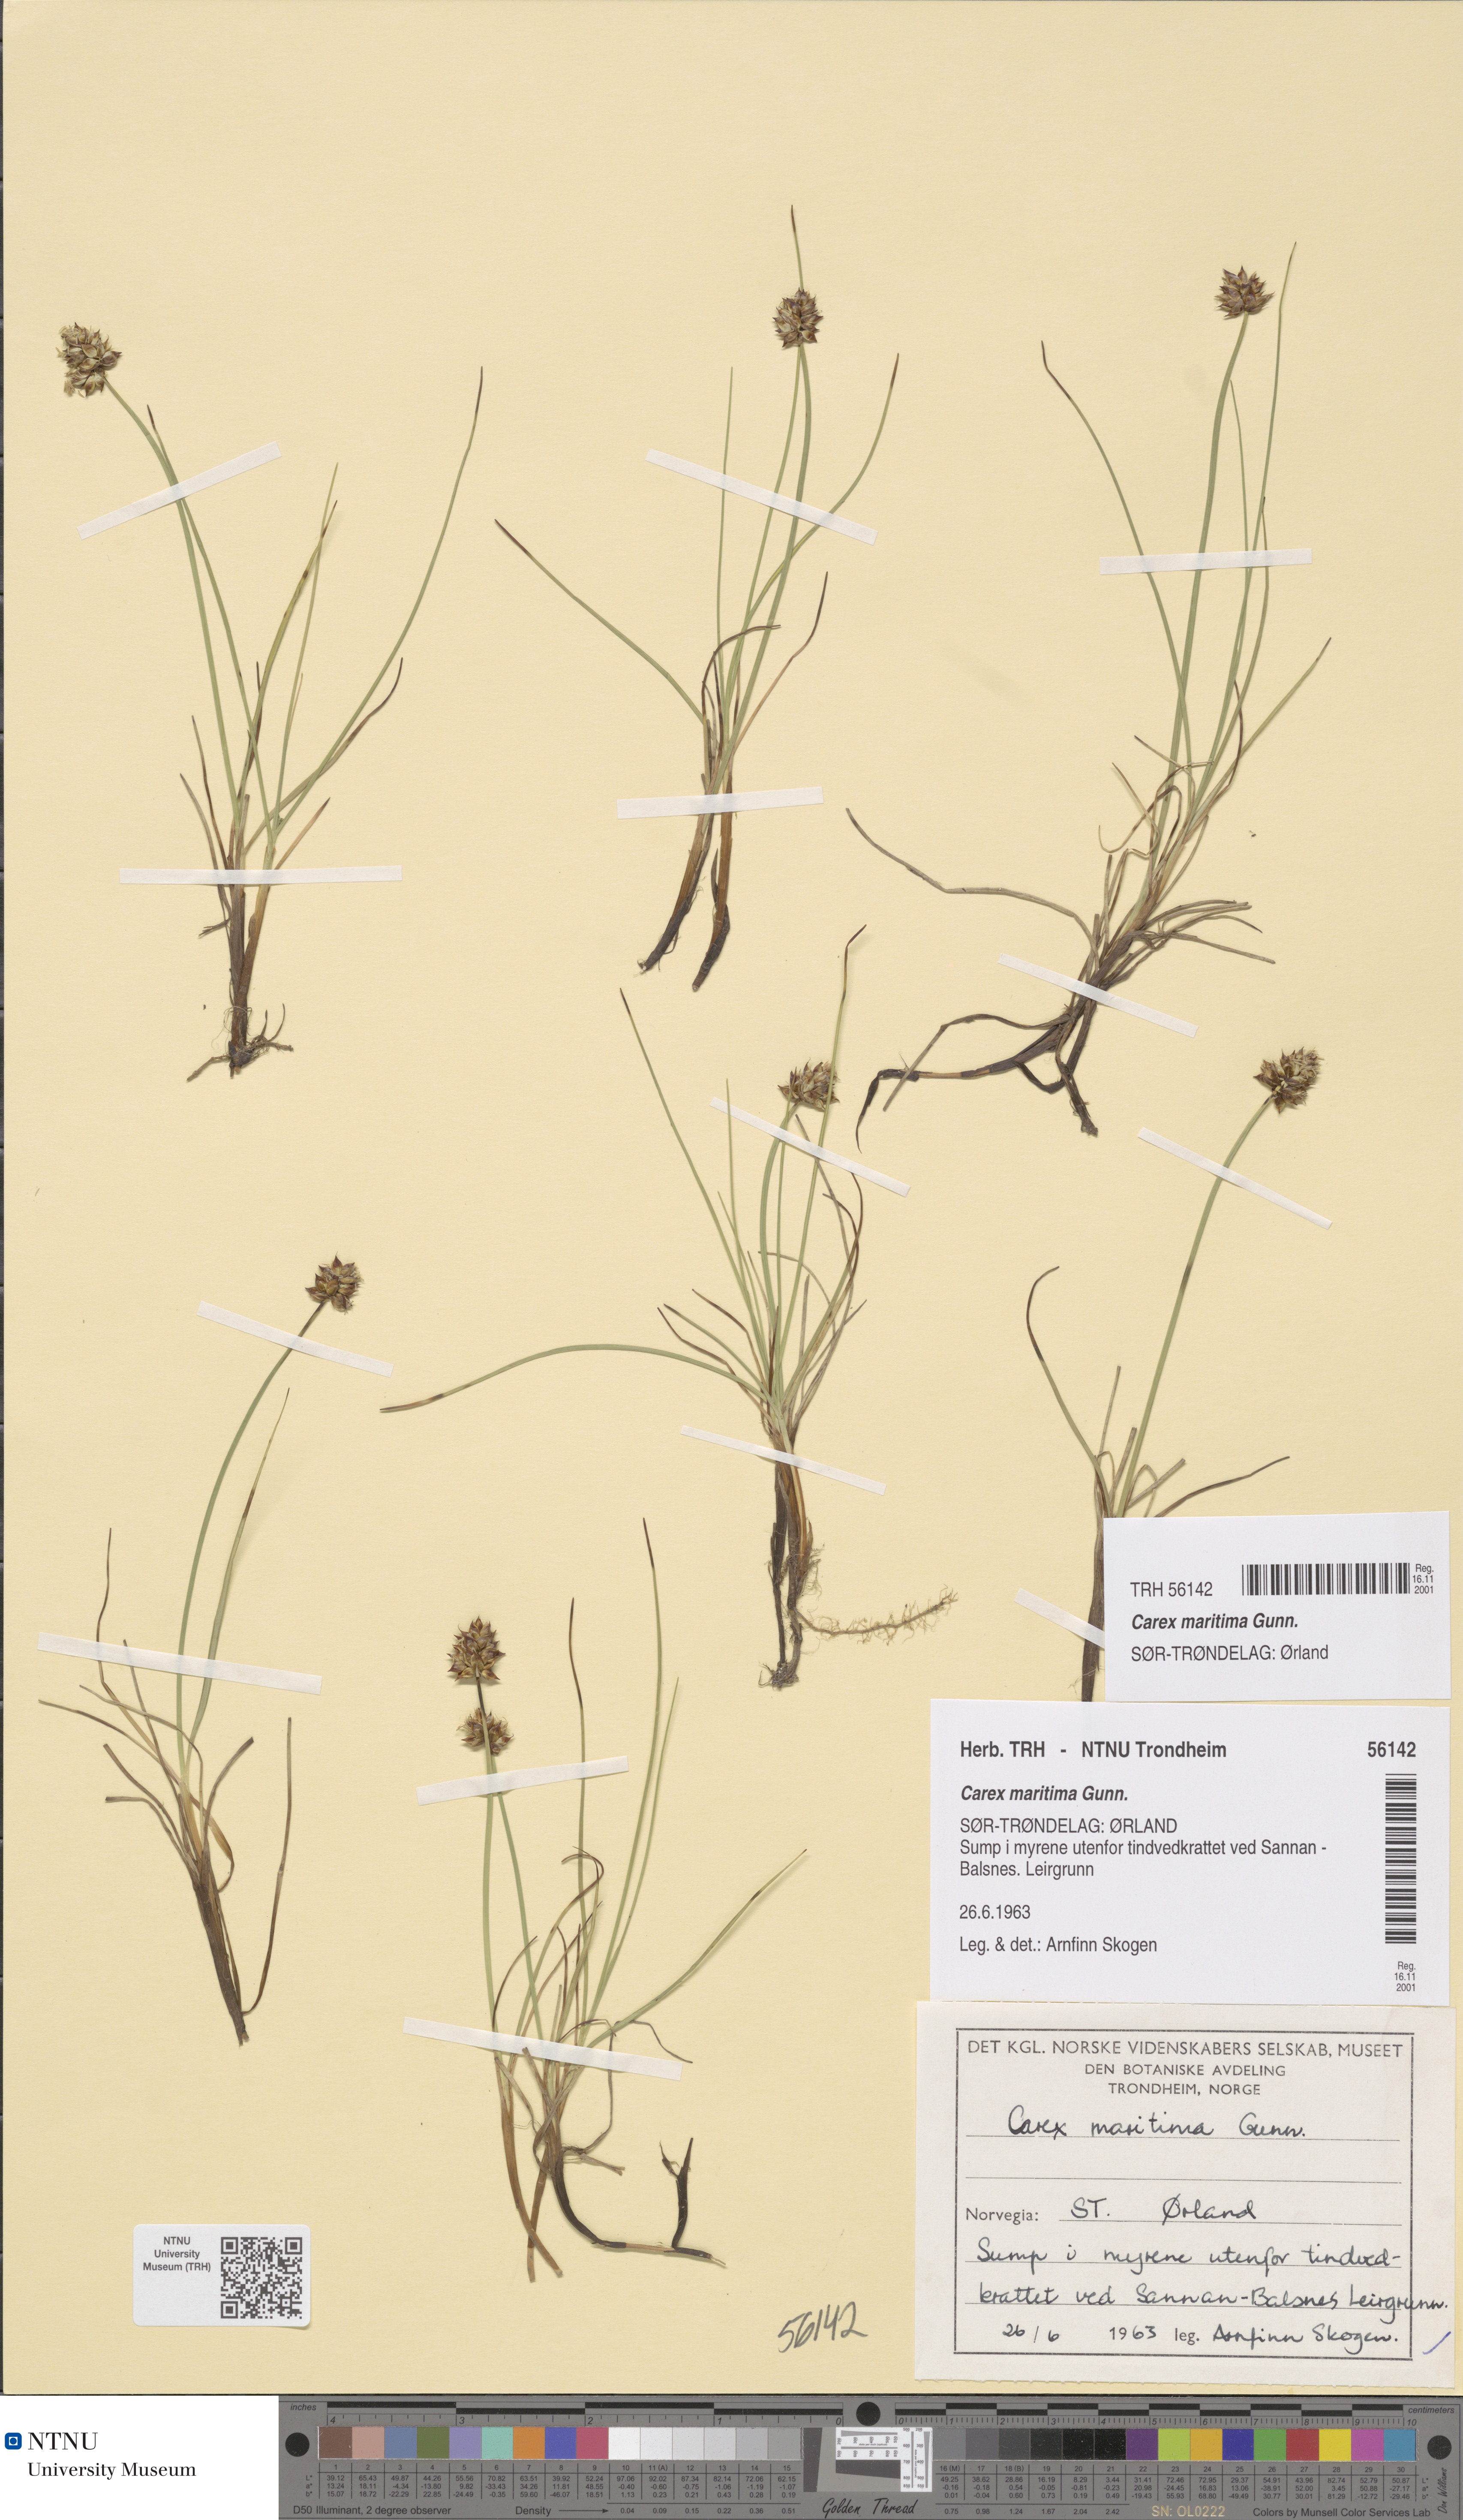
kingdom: Plantae
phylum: Tracheophyta
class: Liliopsida
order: Poales
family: Cyperaceae
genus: Carex
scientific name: Carex maritima
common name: Curved sedge
